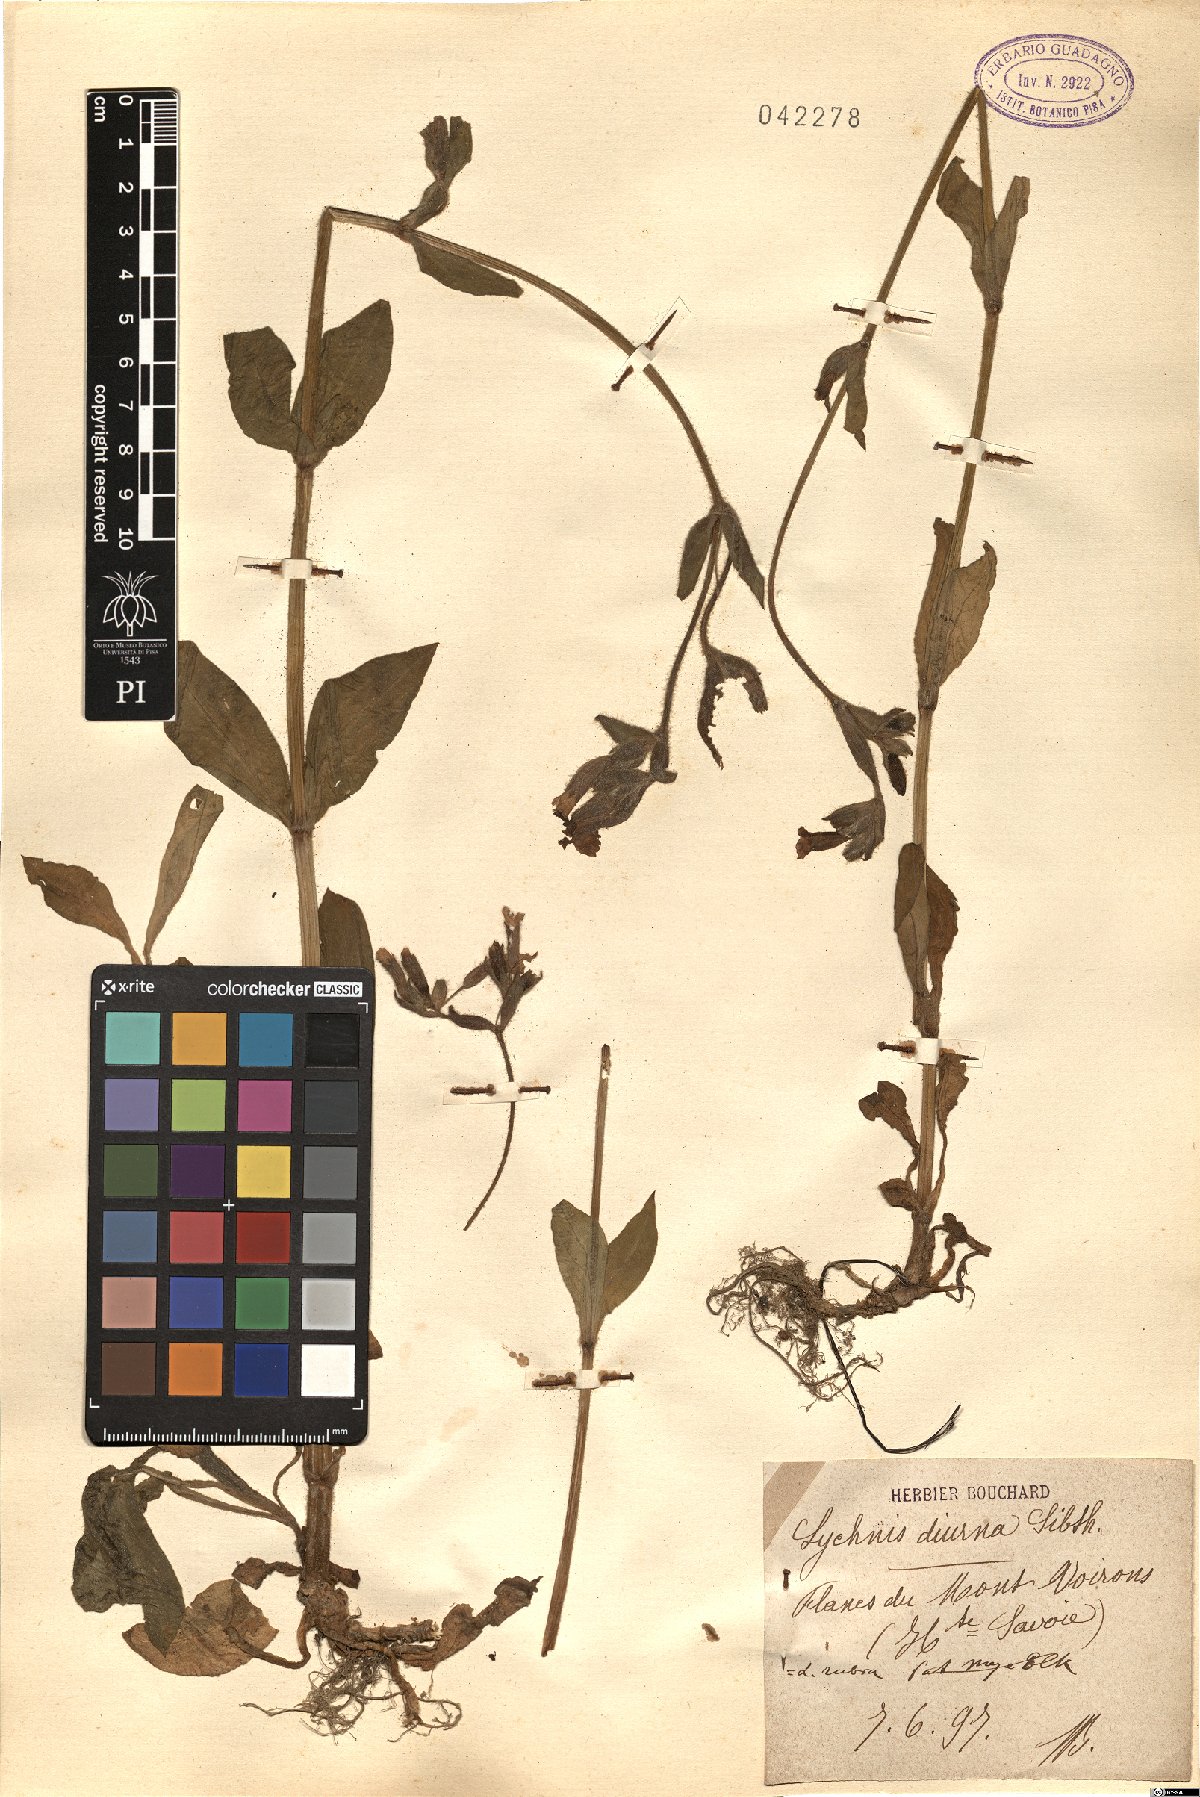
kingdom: Plantae
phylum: Tracheophyta
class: Magnoliopsida
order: Caryophyllales
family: Caryophyllaceae
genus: Silene
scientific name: Silene dioica
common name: Red campion
